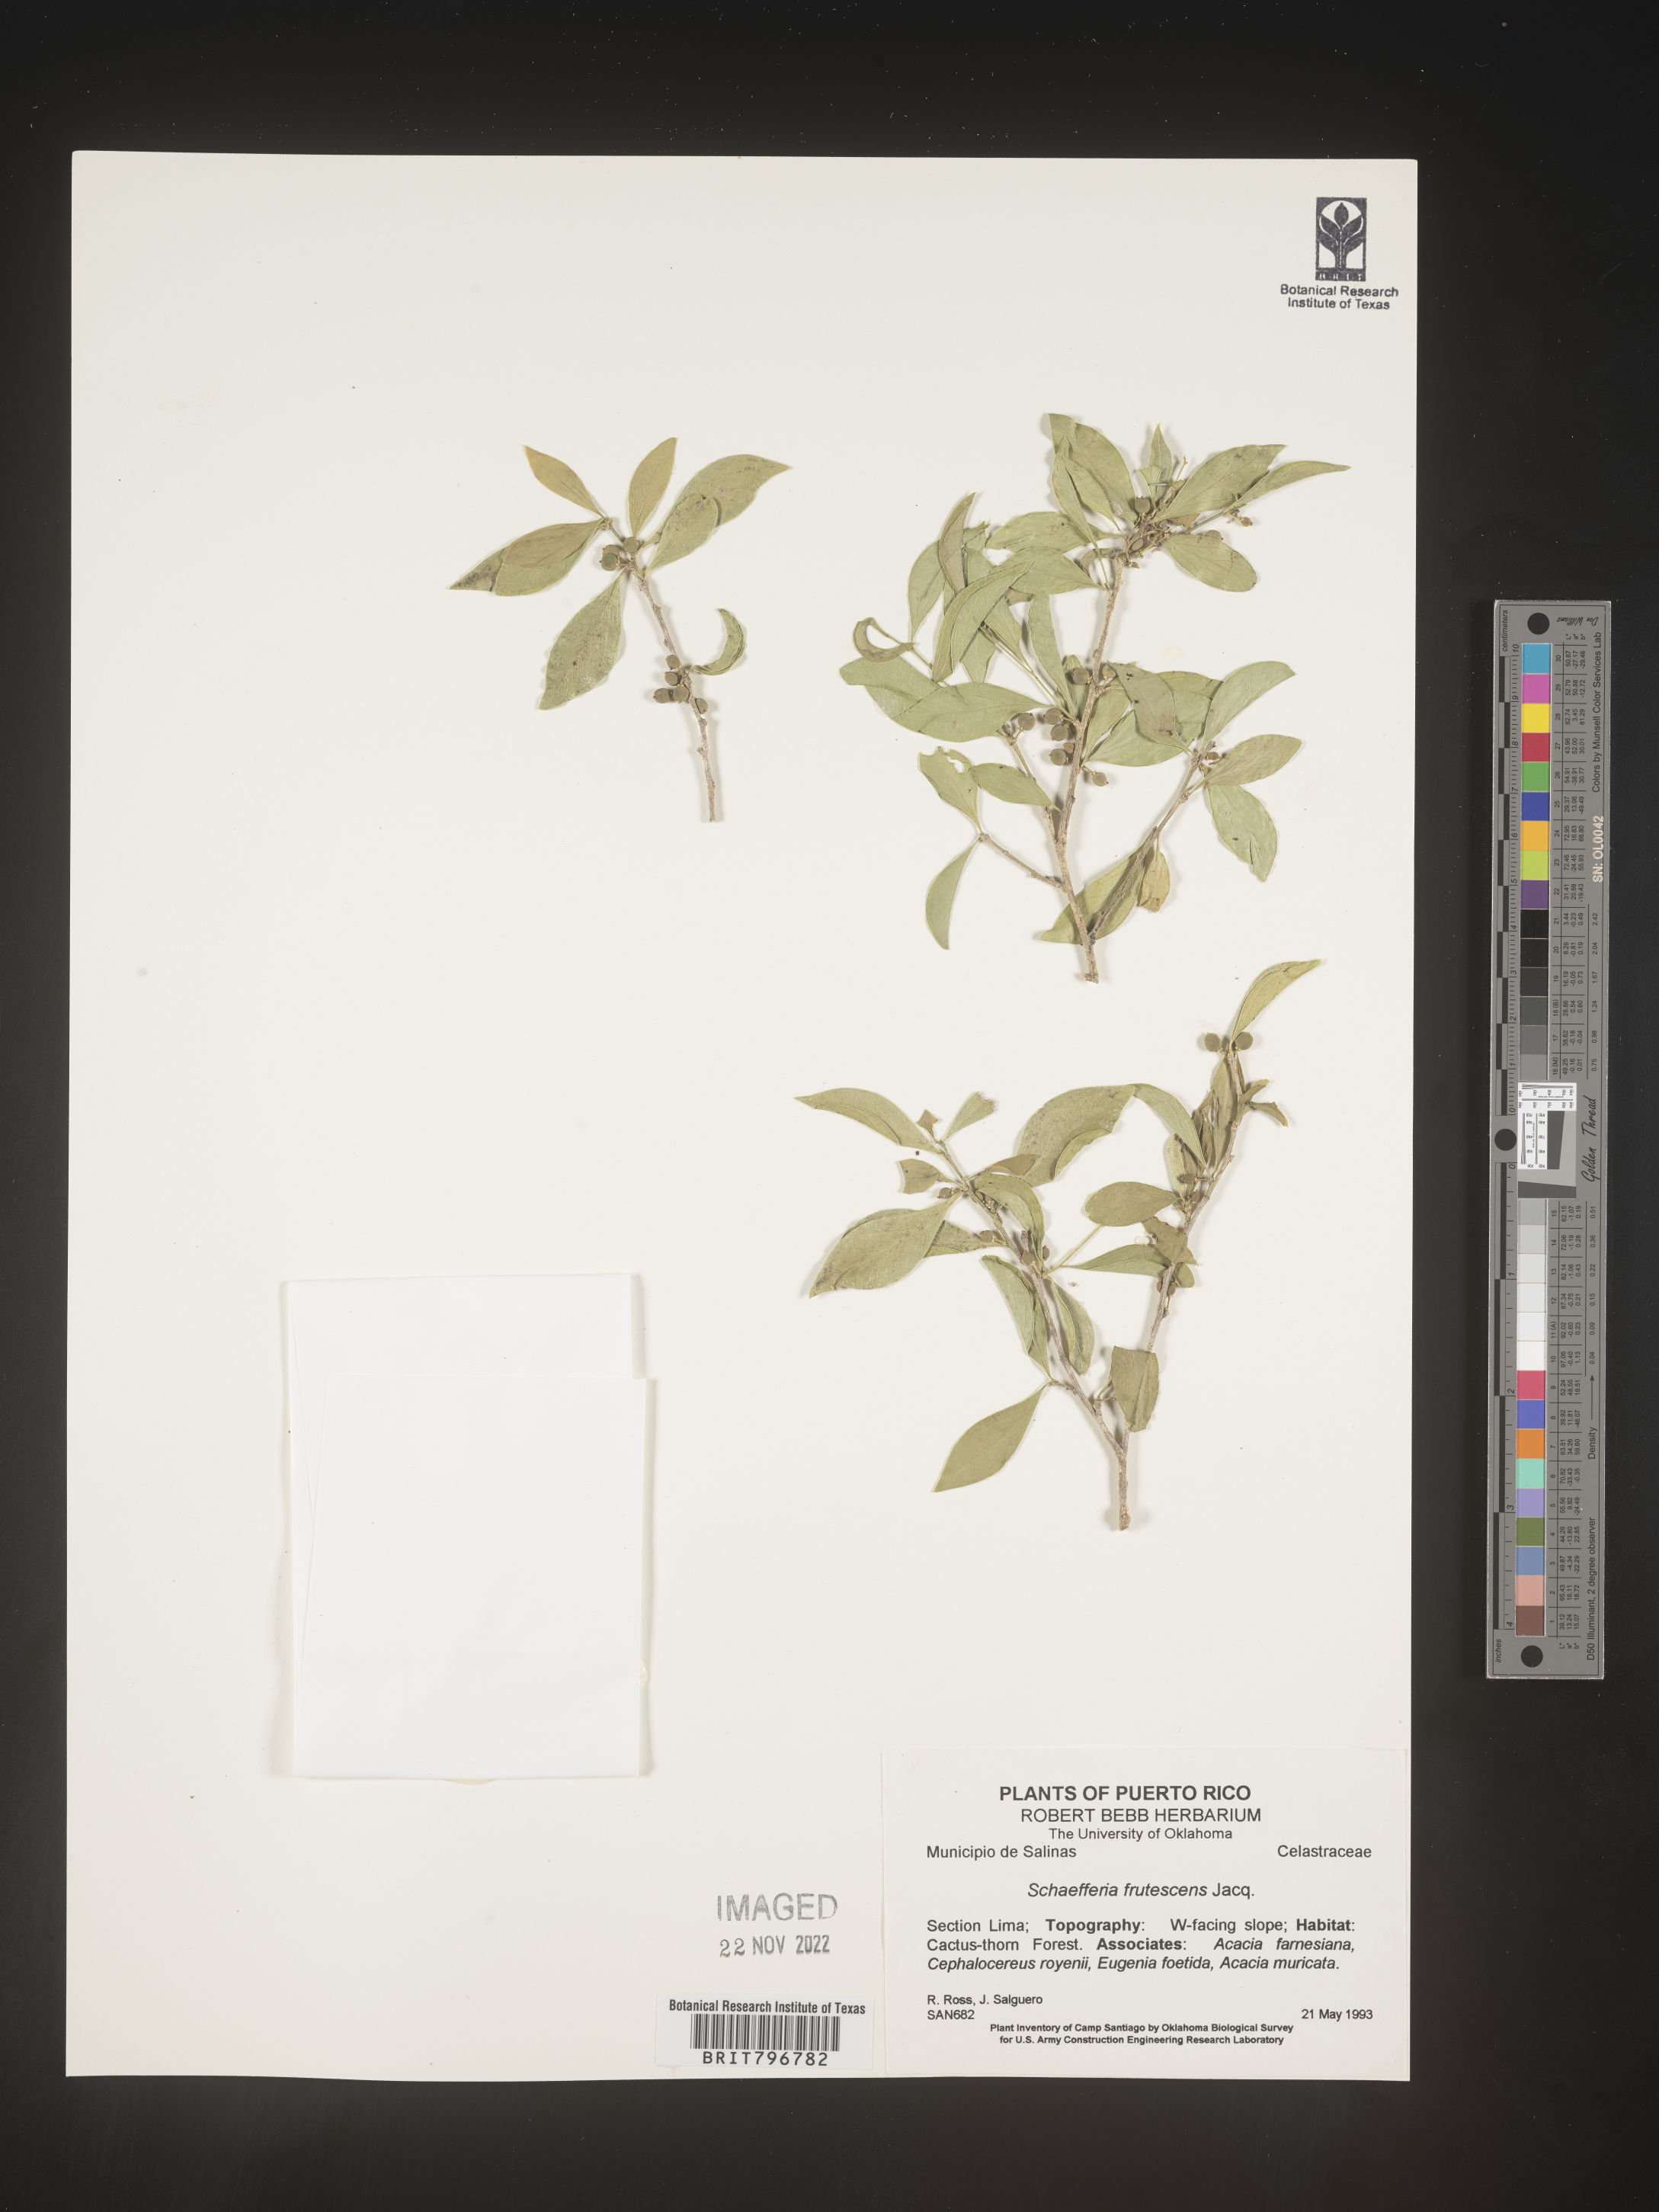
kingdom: Plantae
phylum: Tracheophyta
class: Magnoliopsida
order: Celastrales
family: Celastraceae
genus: Schaefferia
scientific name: Schaefferia
